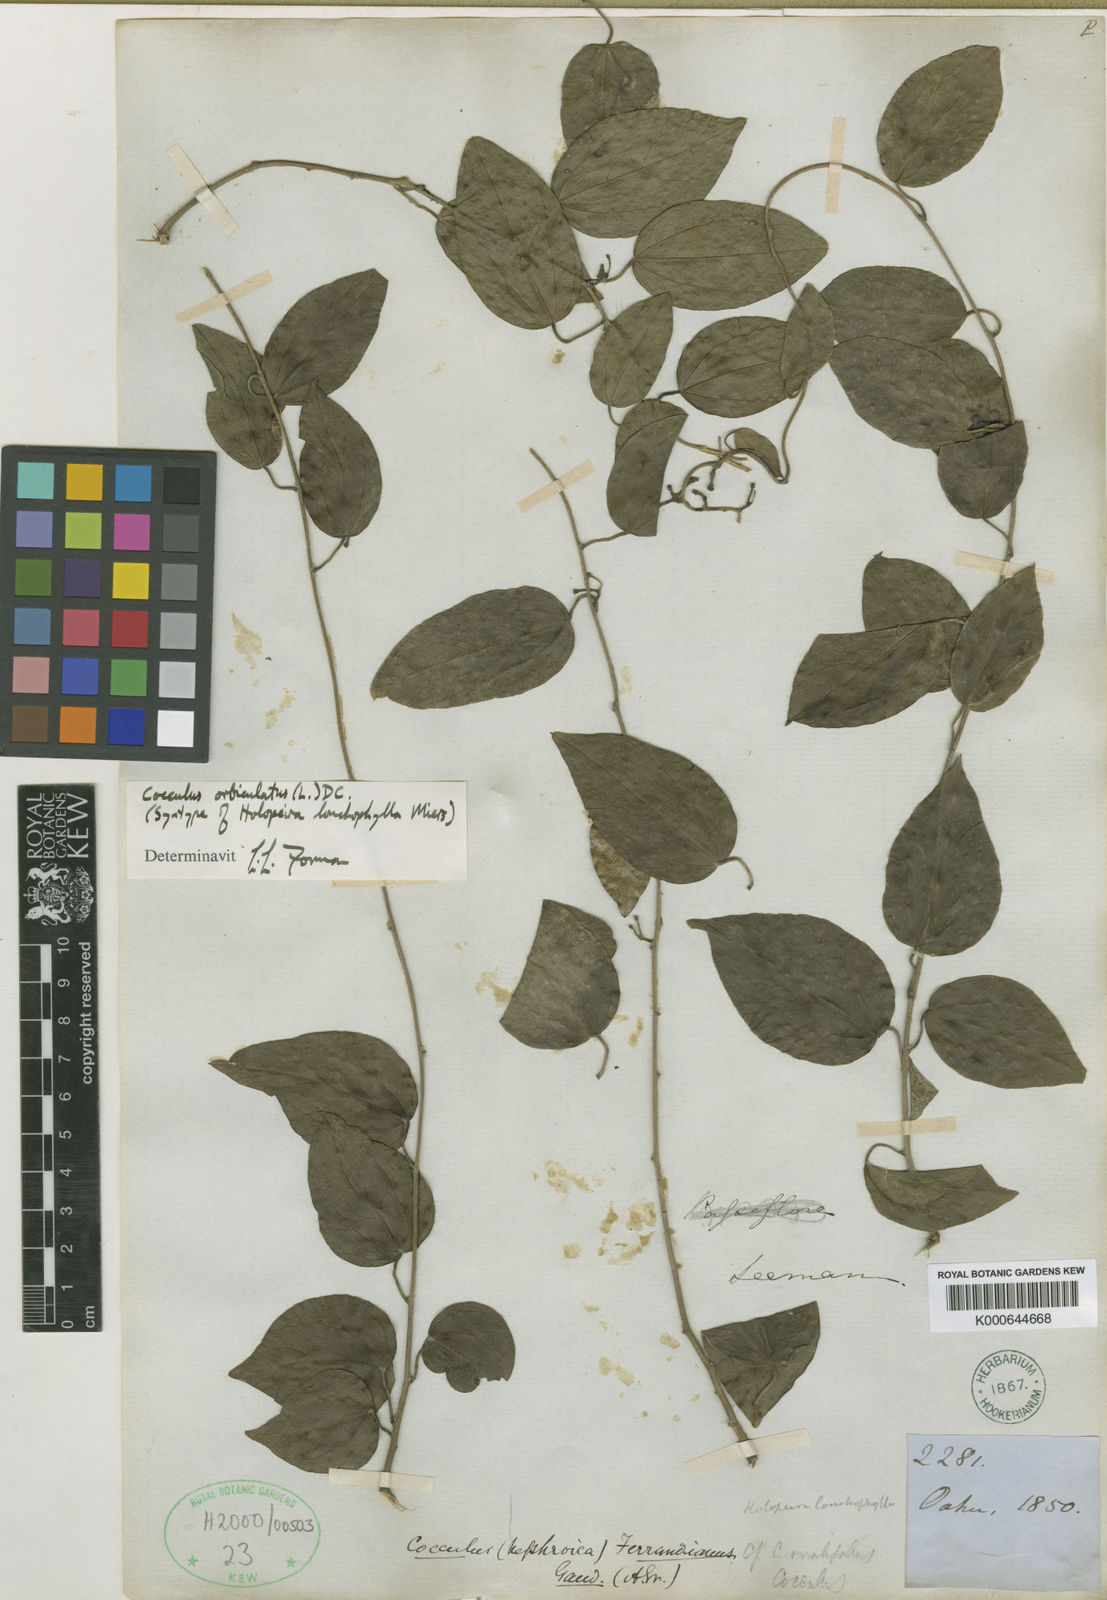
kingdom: Plantae
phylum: Tracheophyta
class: Magnoliopsida
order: Ranunculales
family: Menispermaceae
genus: Cocculus
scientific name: Cocculus orbiculatus
